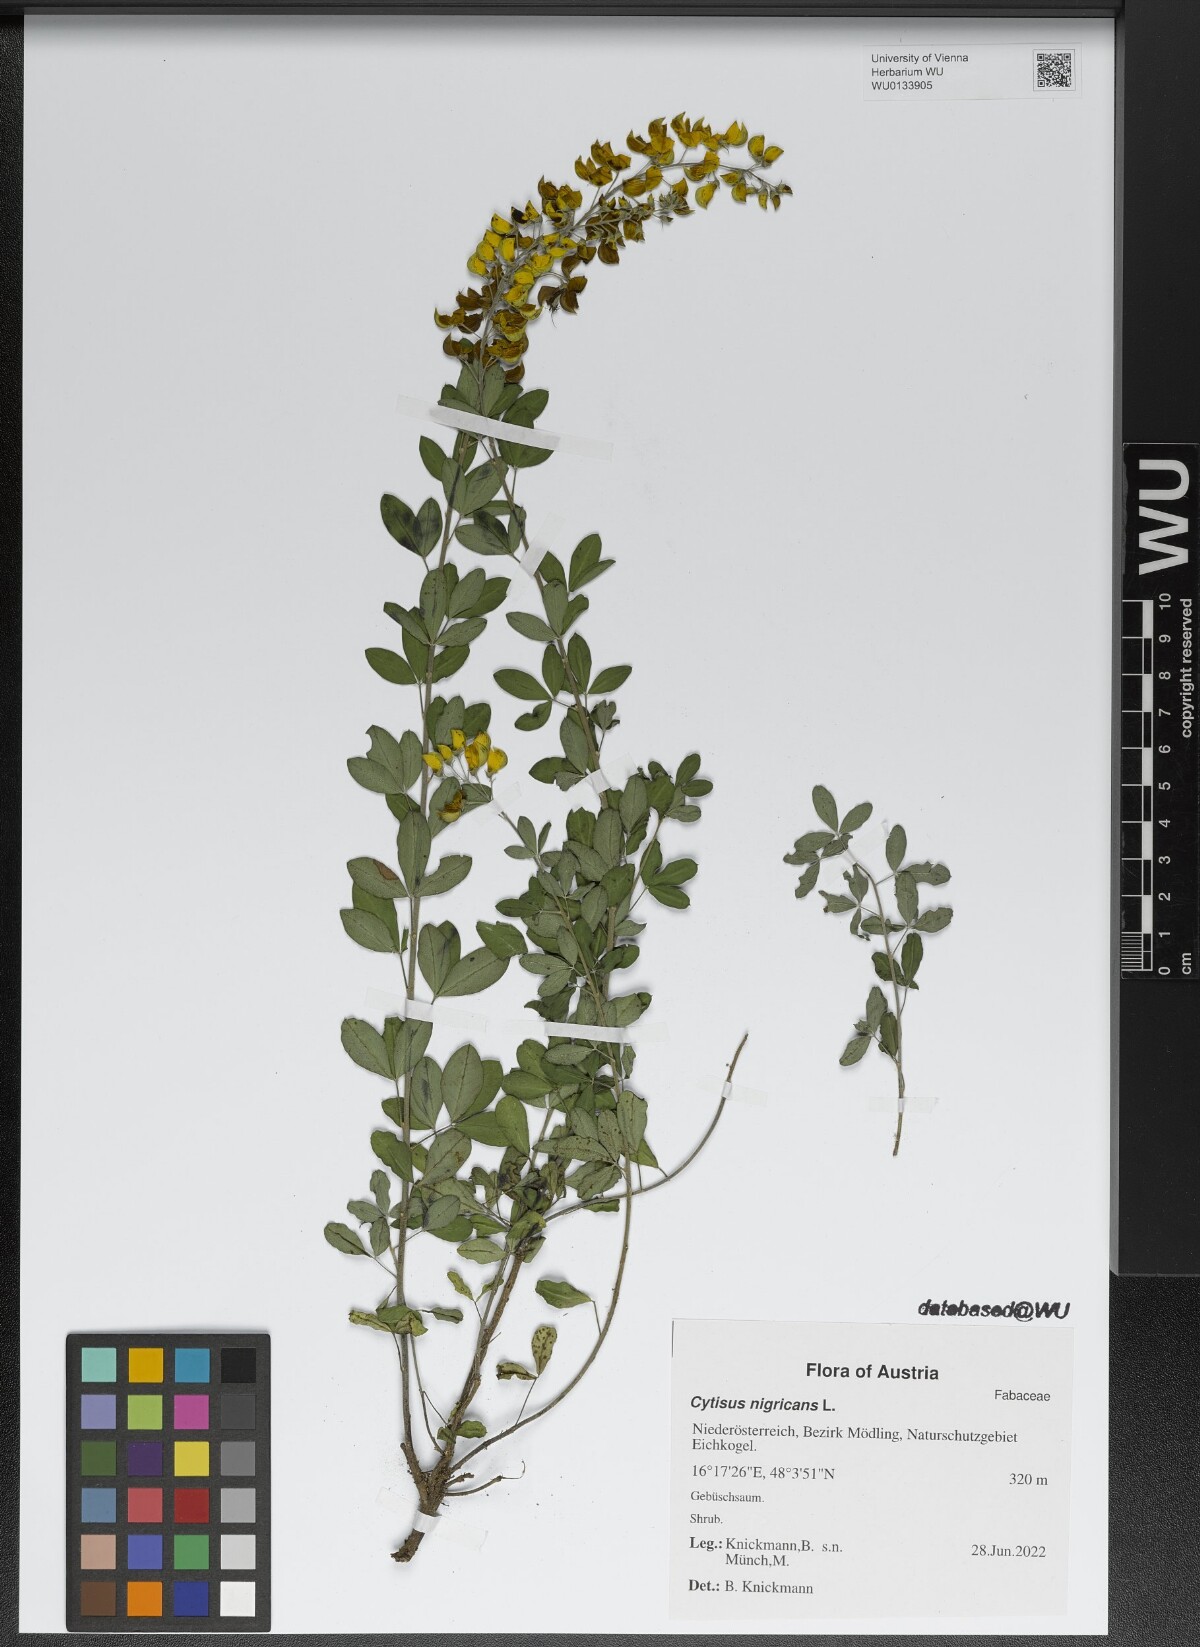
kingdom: Plantae
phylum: Tracheophyta
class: Magnoliopsida
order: Fabales
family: Fabaceae
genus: Cytisus
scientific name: Cytisus nigricans
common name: Black broom
